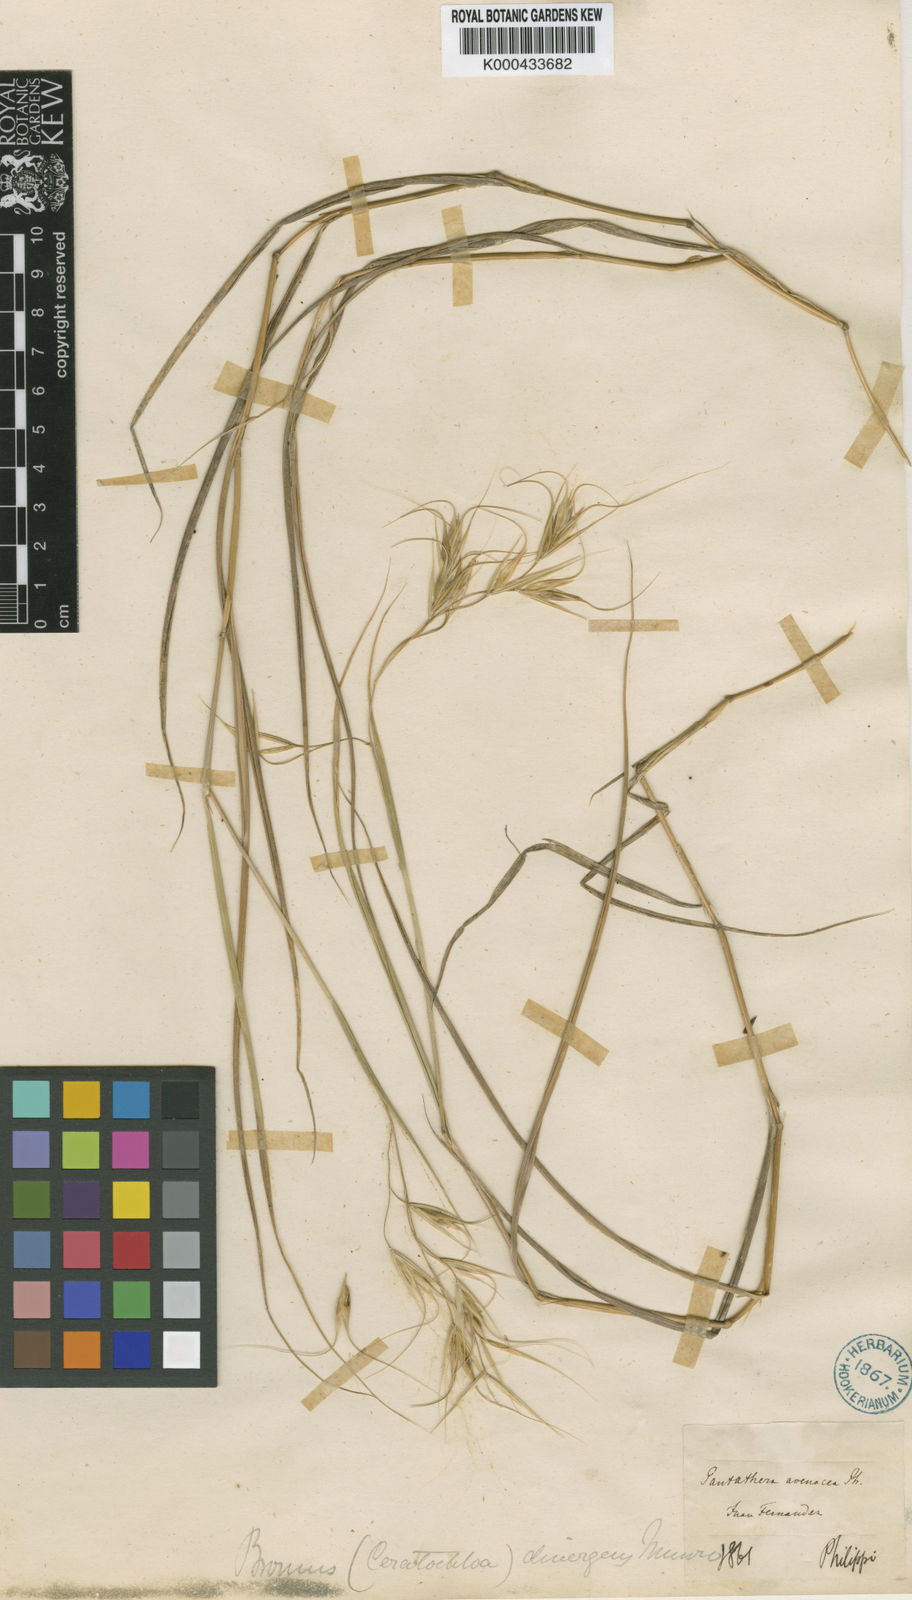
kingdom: Plantae
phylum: Tracheophyta
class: Liliopsida
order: Poales
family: Poaceae
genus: Megalachne
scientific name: Megalachne
